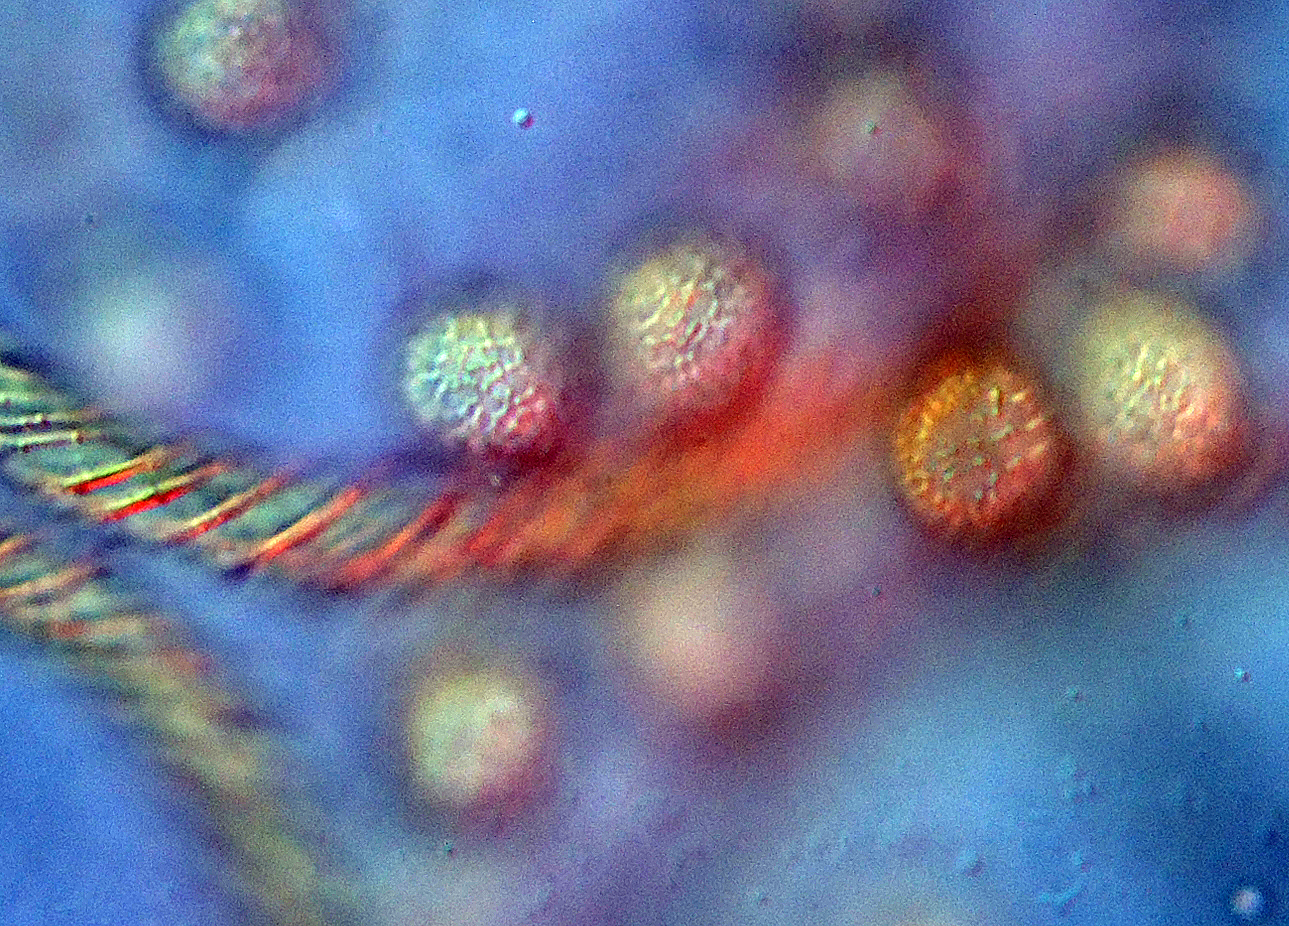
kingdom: Protozoa
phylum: Mycetozoa
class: Myxomycetes
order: Trichiales
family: Arcyriaceae
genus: Hemitrichia
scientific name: Hemitrichia clavata
